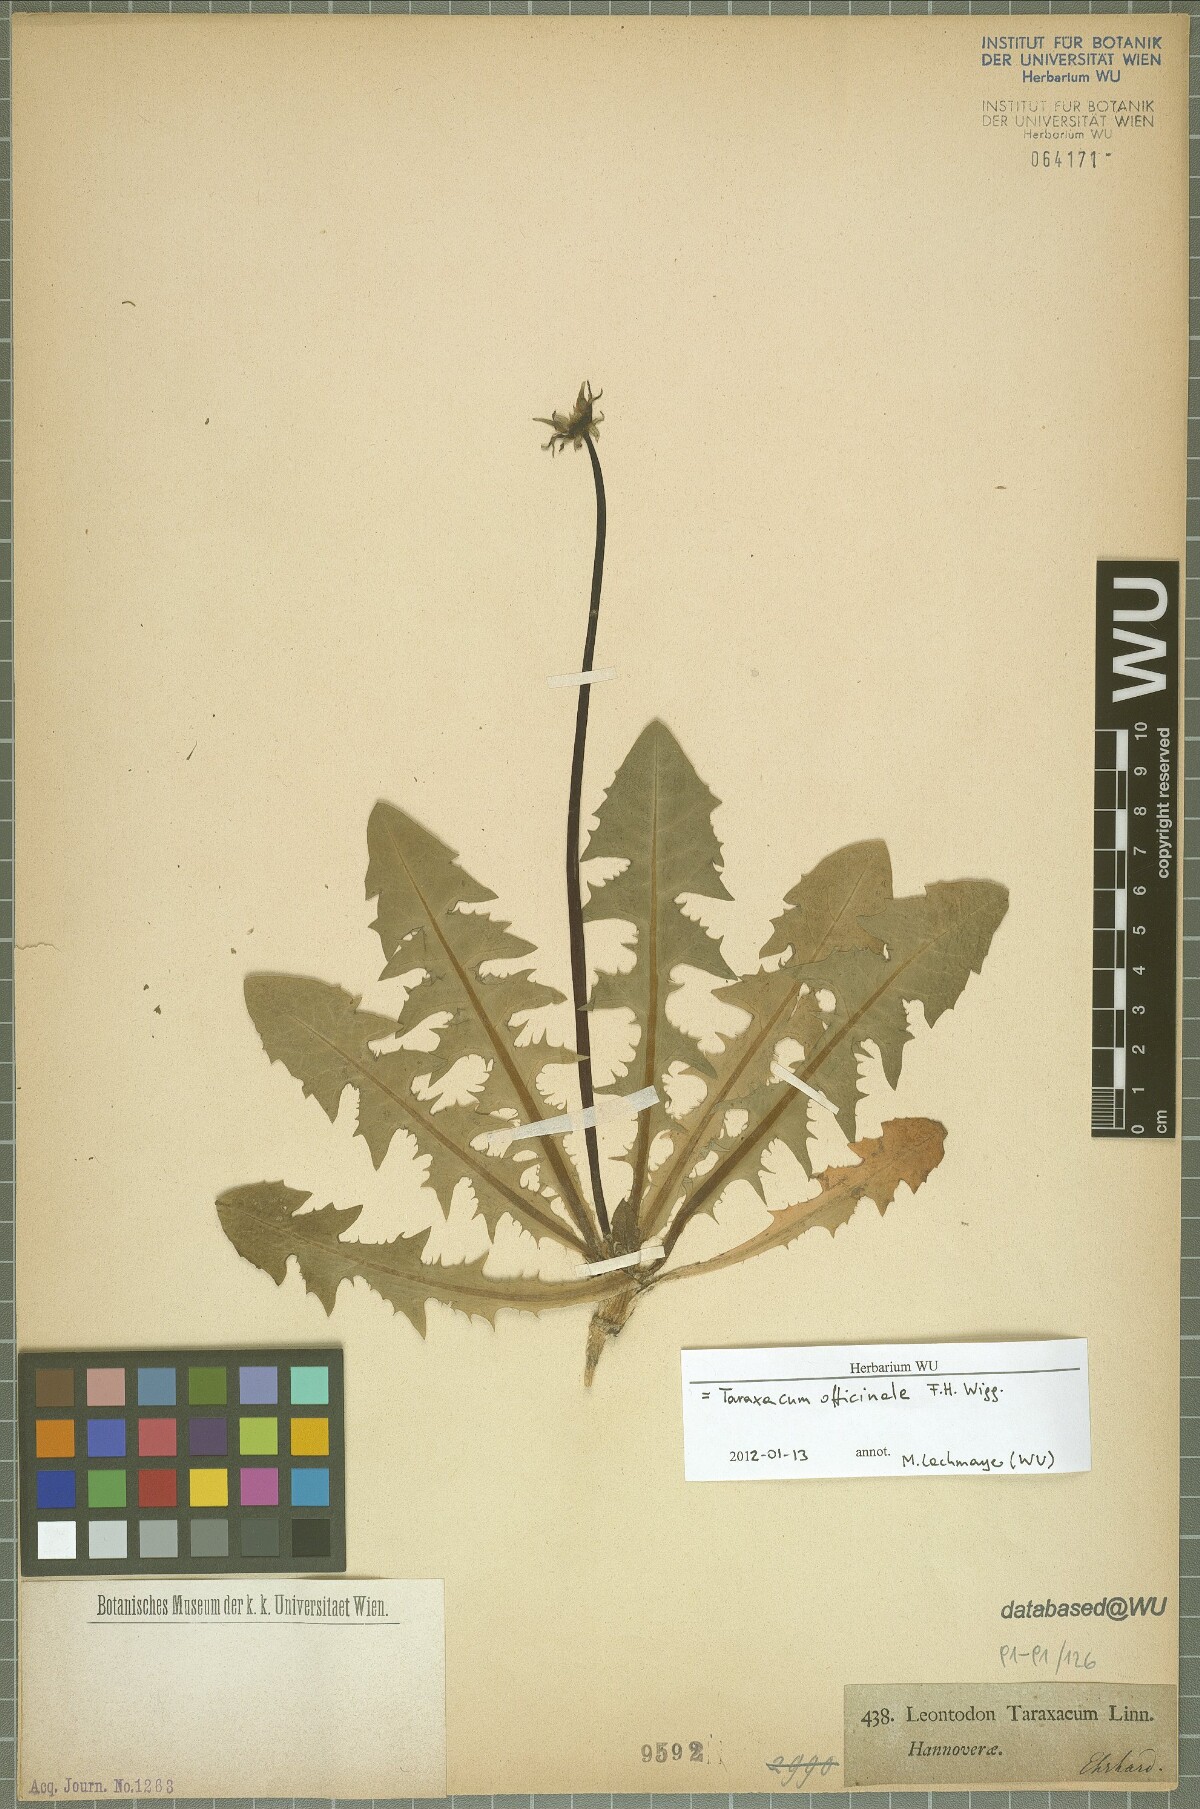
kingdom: Plantae
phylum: Tracheophyta
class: Magnoliopsida
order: Asterales
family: Asteraceae
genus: Taraxacum
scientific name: Taraxacum officinale
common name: Common dandelion
